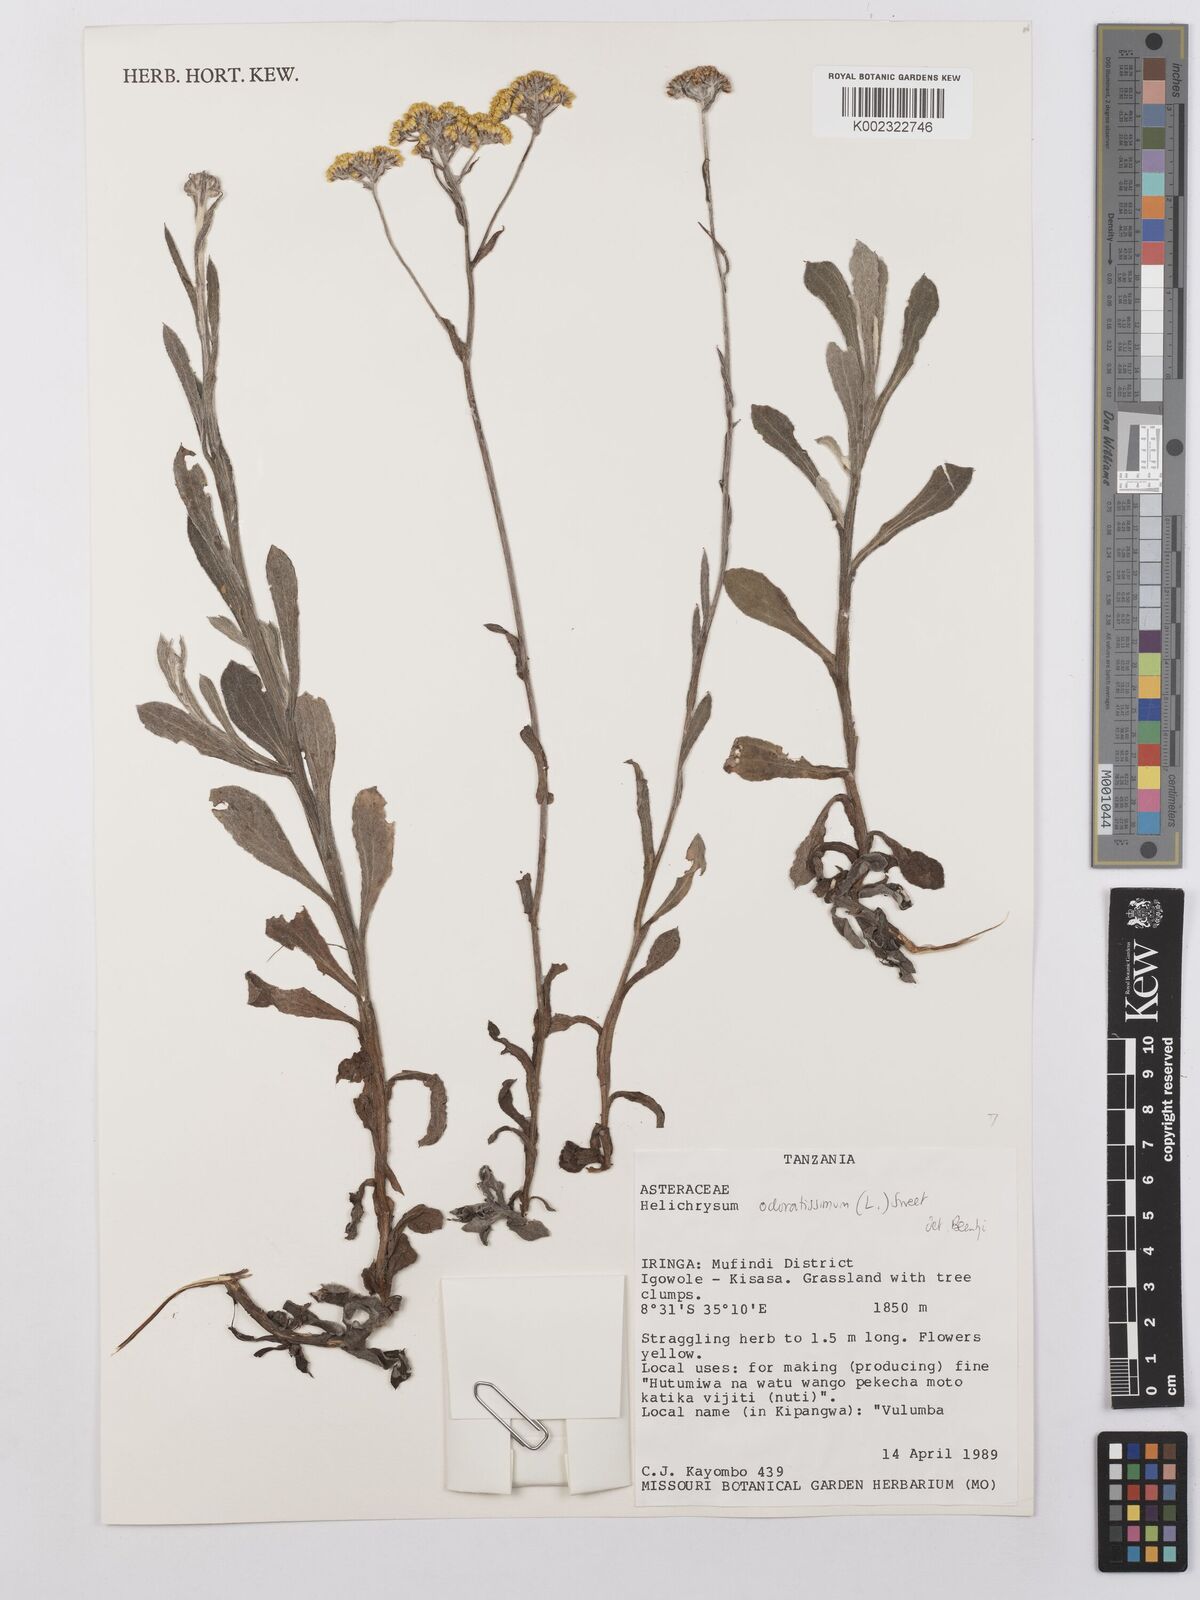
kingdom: Plantae
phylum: Tracheophyta
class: Magnoliopsida
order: Asterales
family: Asteraceae
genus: Helichrysum
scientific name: Helichrysum odoratissimum
